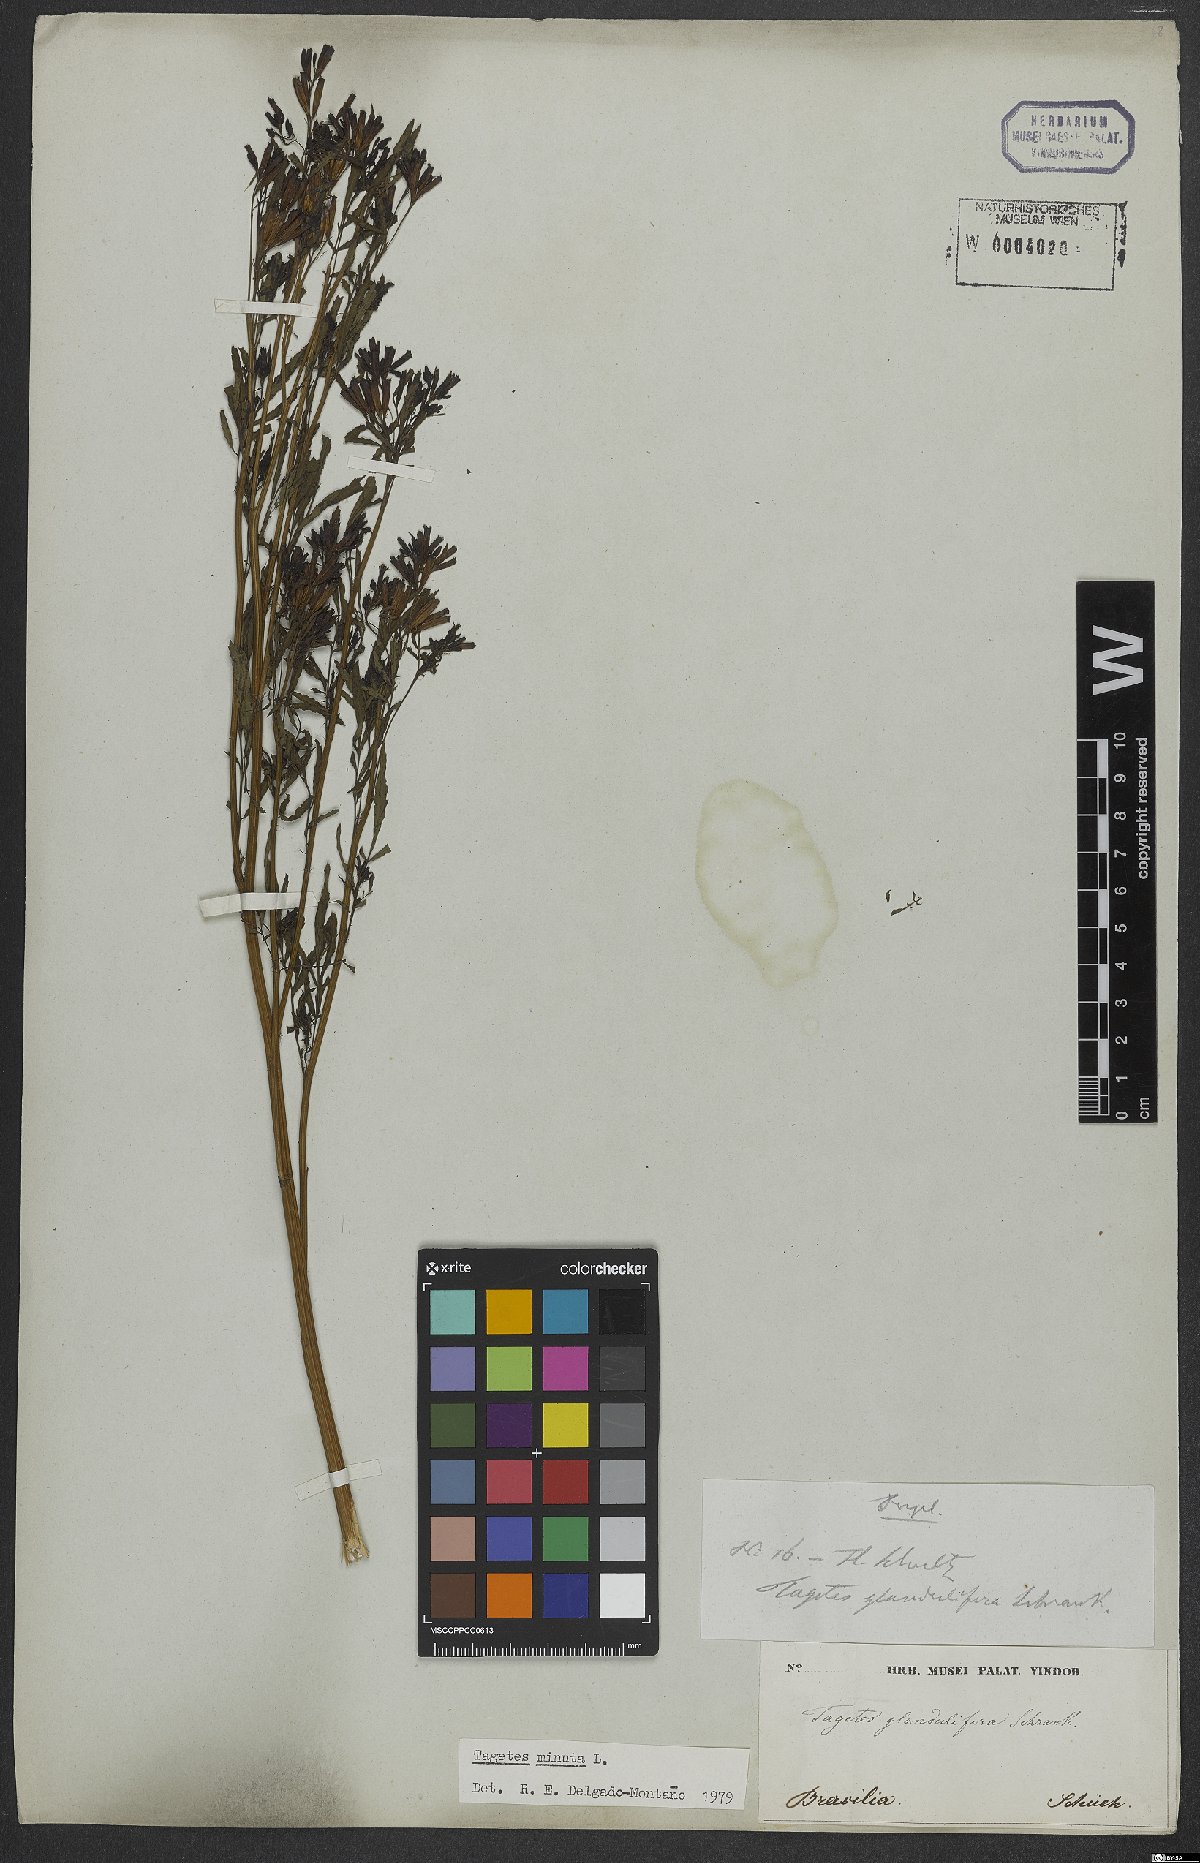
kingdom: Plantae
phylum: Tracheophyta
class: Magnoliopsida
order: Asterales
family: Asteraceae
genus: Tagetes
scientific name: Tagetes minuta
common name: Muster john henry
